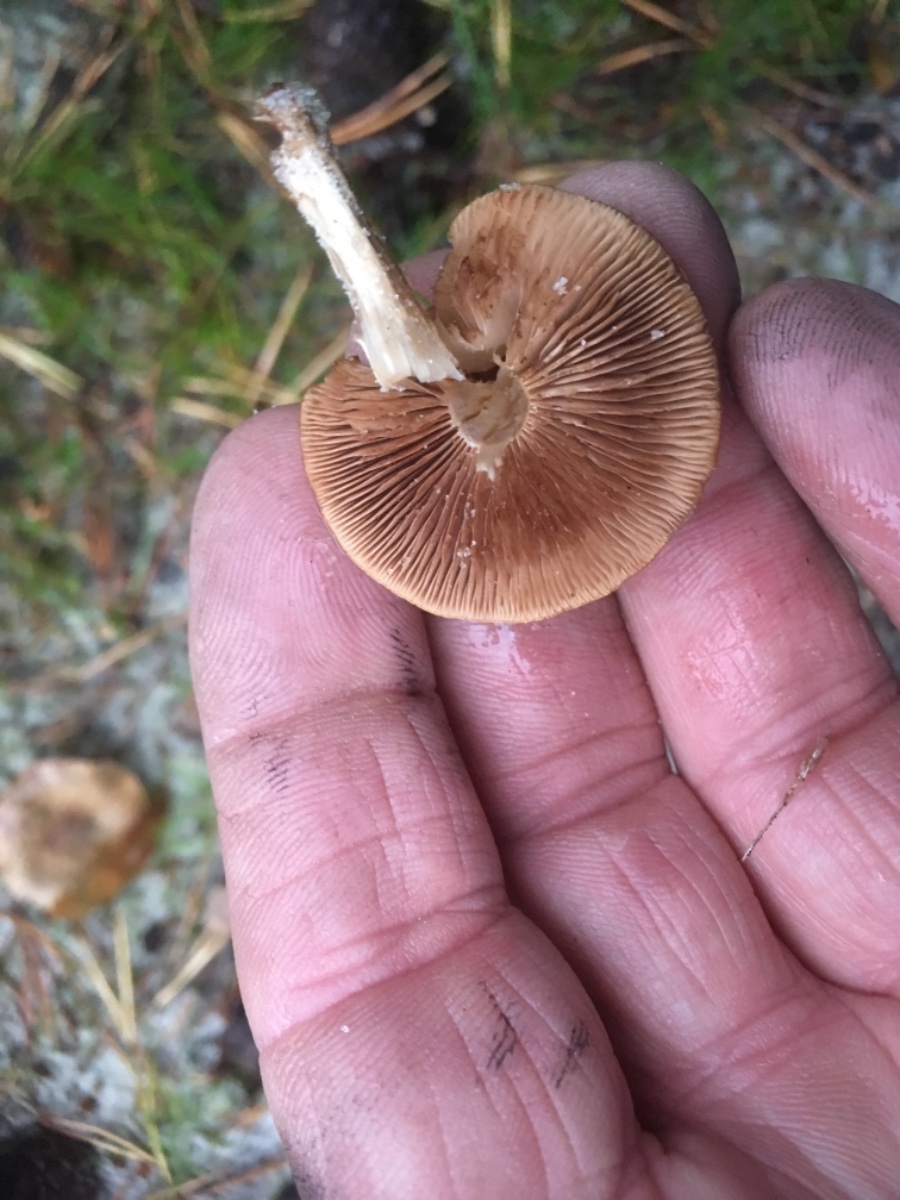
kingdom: Fungi
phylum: Basidiomycota
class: Agaricomycetes
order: Agaricales
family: Hymenogastraceae
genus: Hebeloma
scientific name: Hebeloma
